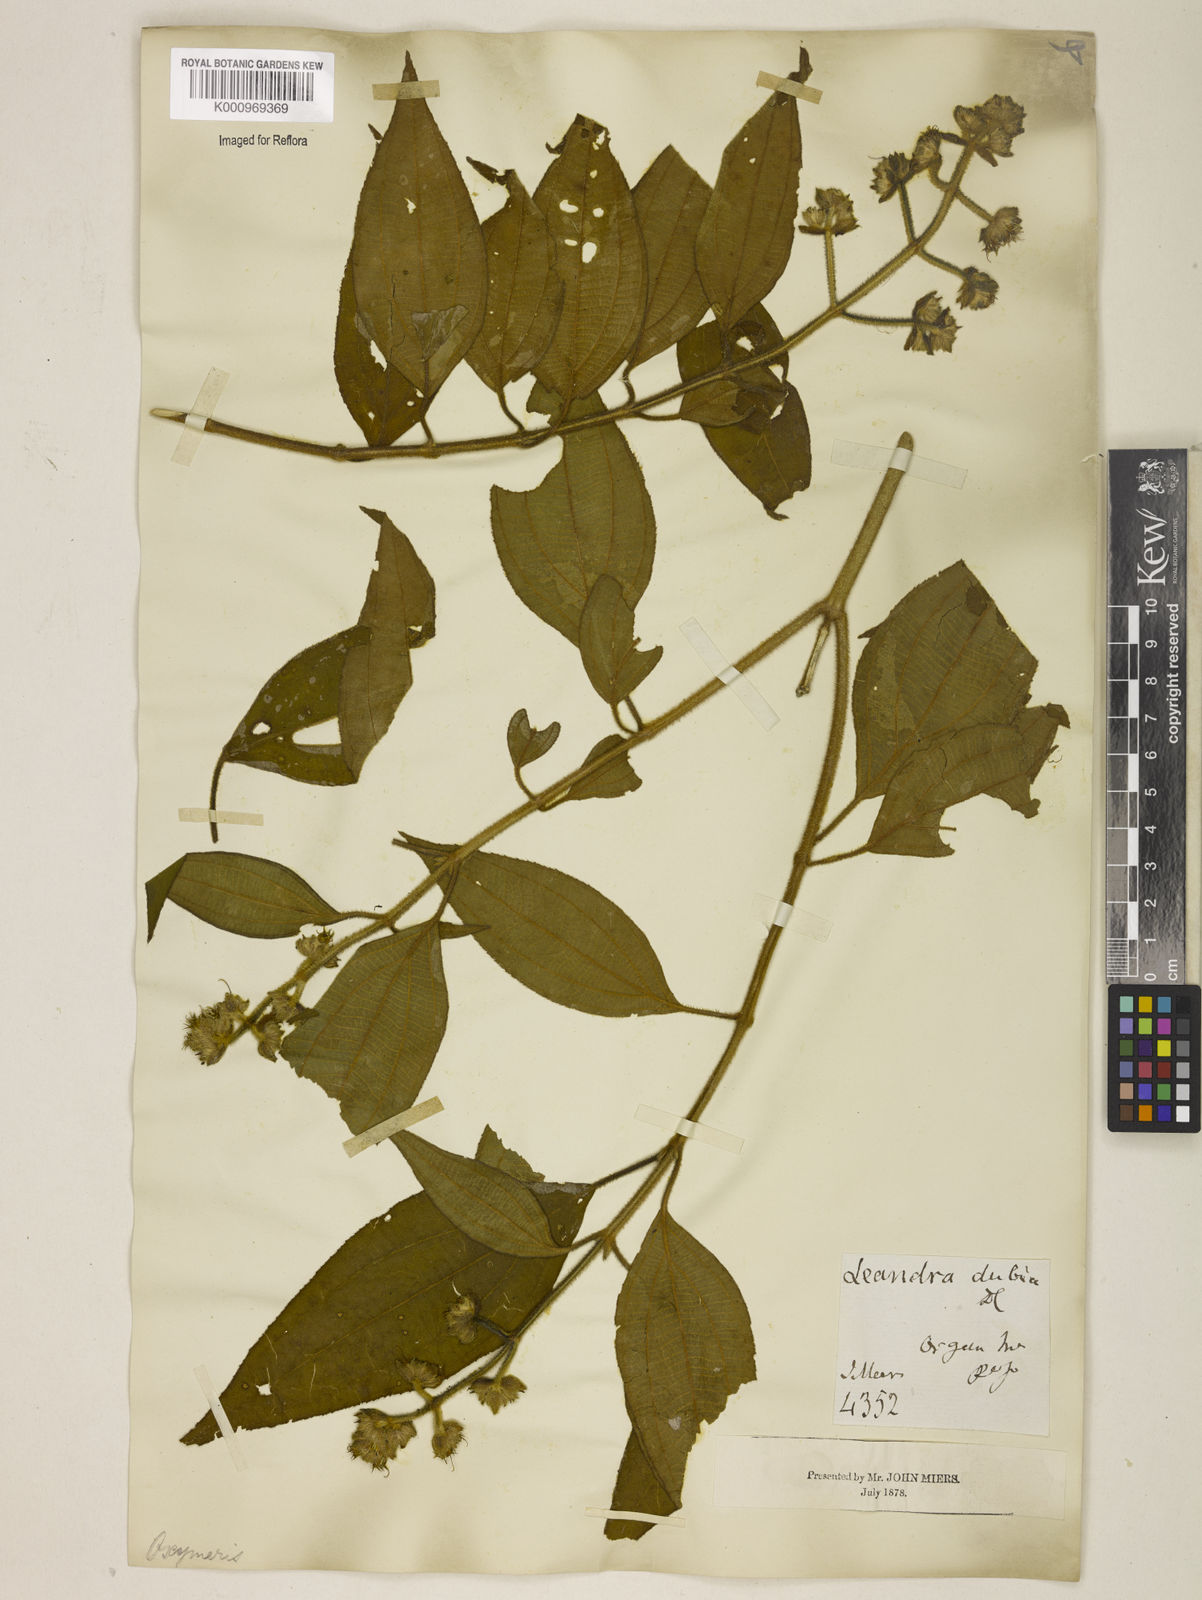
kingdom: Plantae
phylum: Tracheophyta
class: Magnoliopsida
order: Myrtales
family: Melastomataceae
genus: Miconia
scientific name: Miconia dubia
